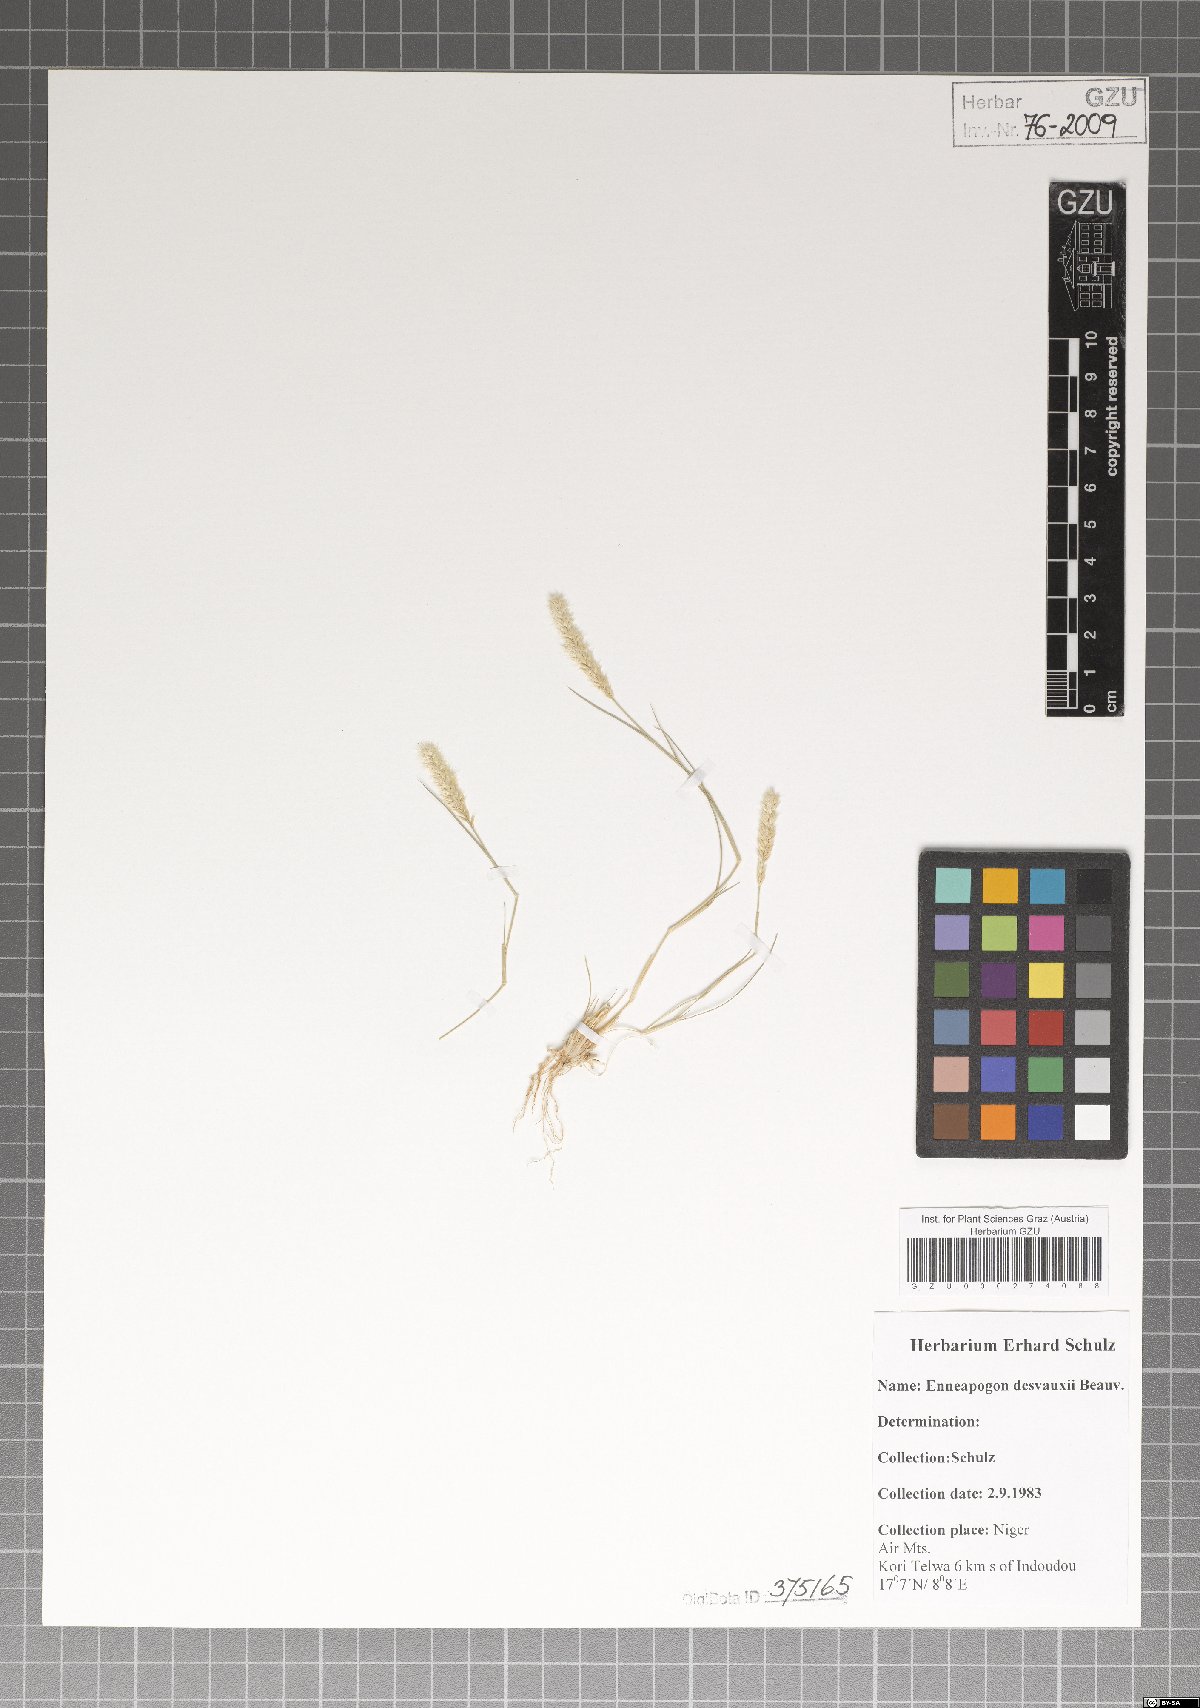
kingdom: Plantae
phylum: Tracheophyta
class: Liliopsida
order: Poales
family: Poaceae
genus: Enneapogon
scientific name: Enneapogon desvauxii
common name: Feather pappus grass
